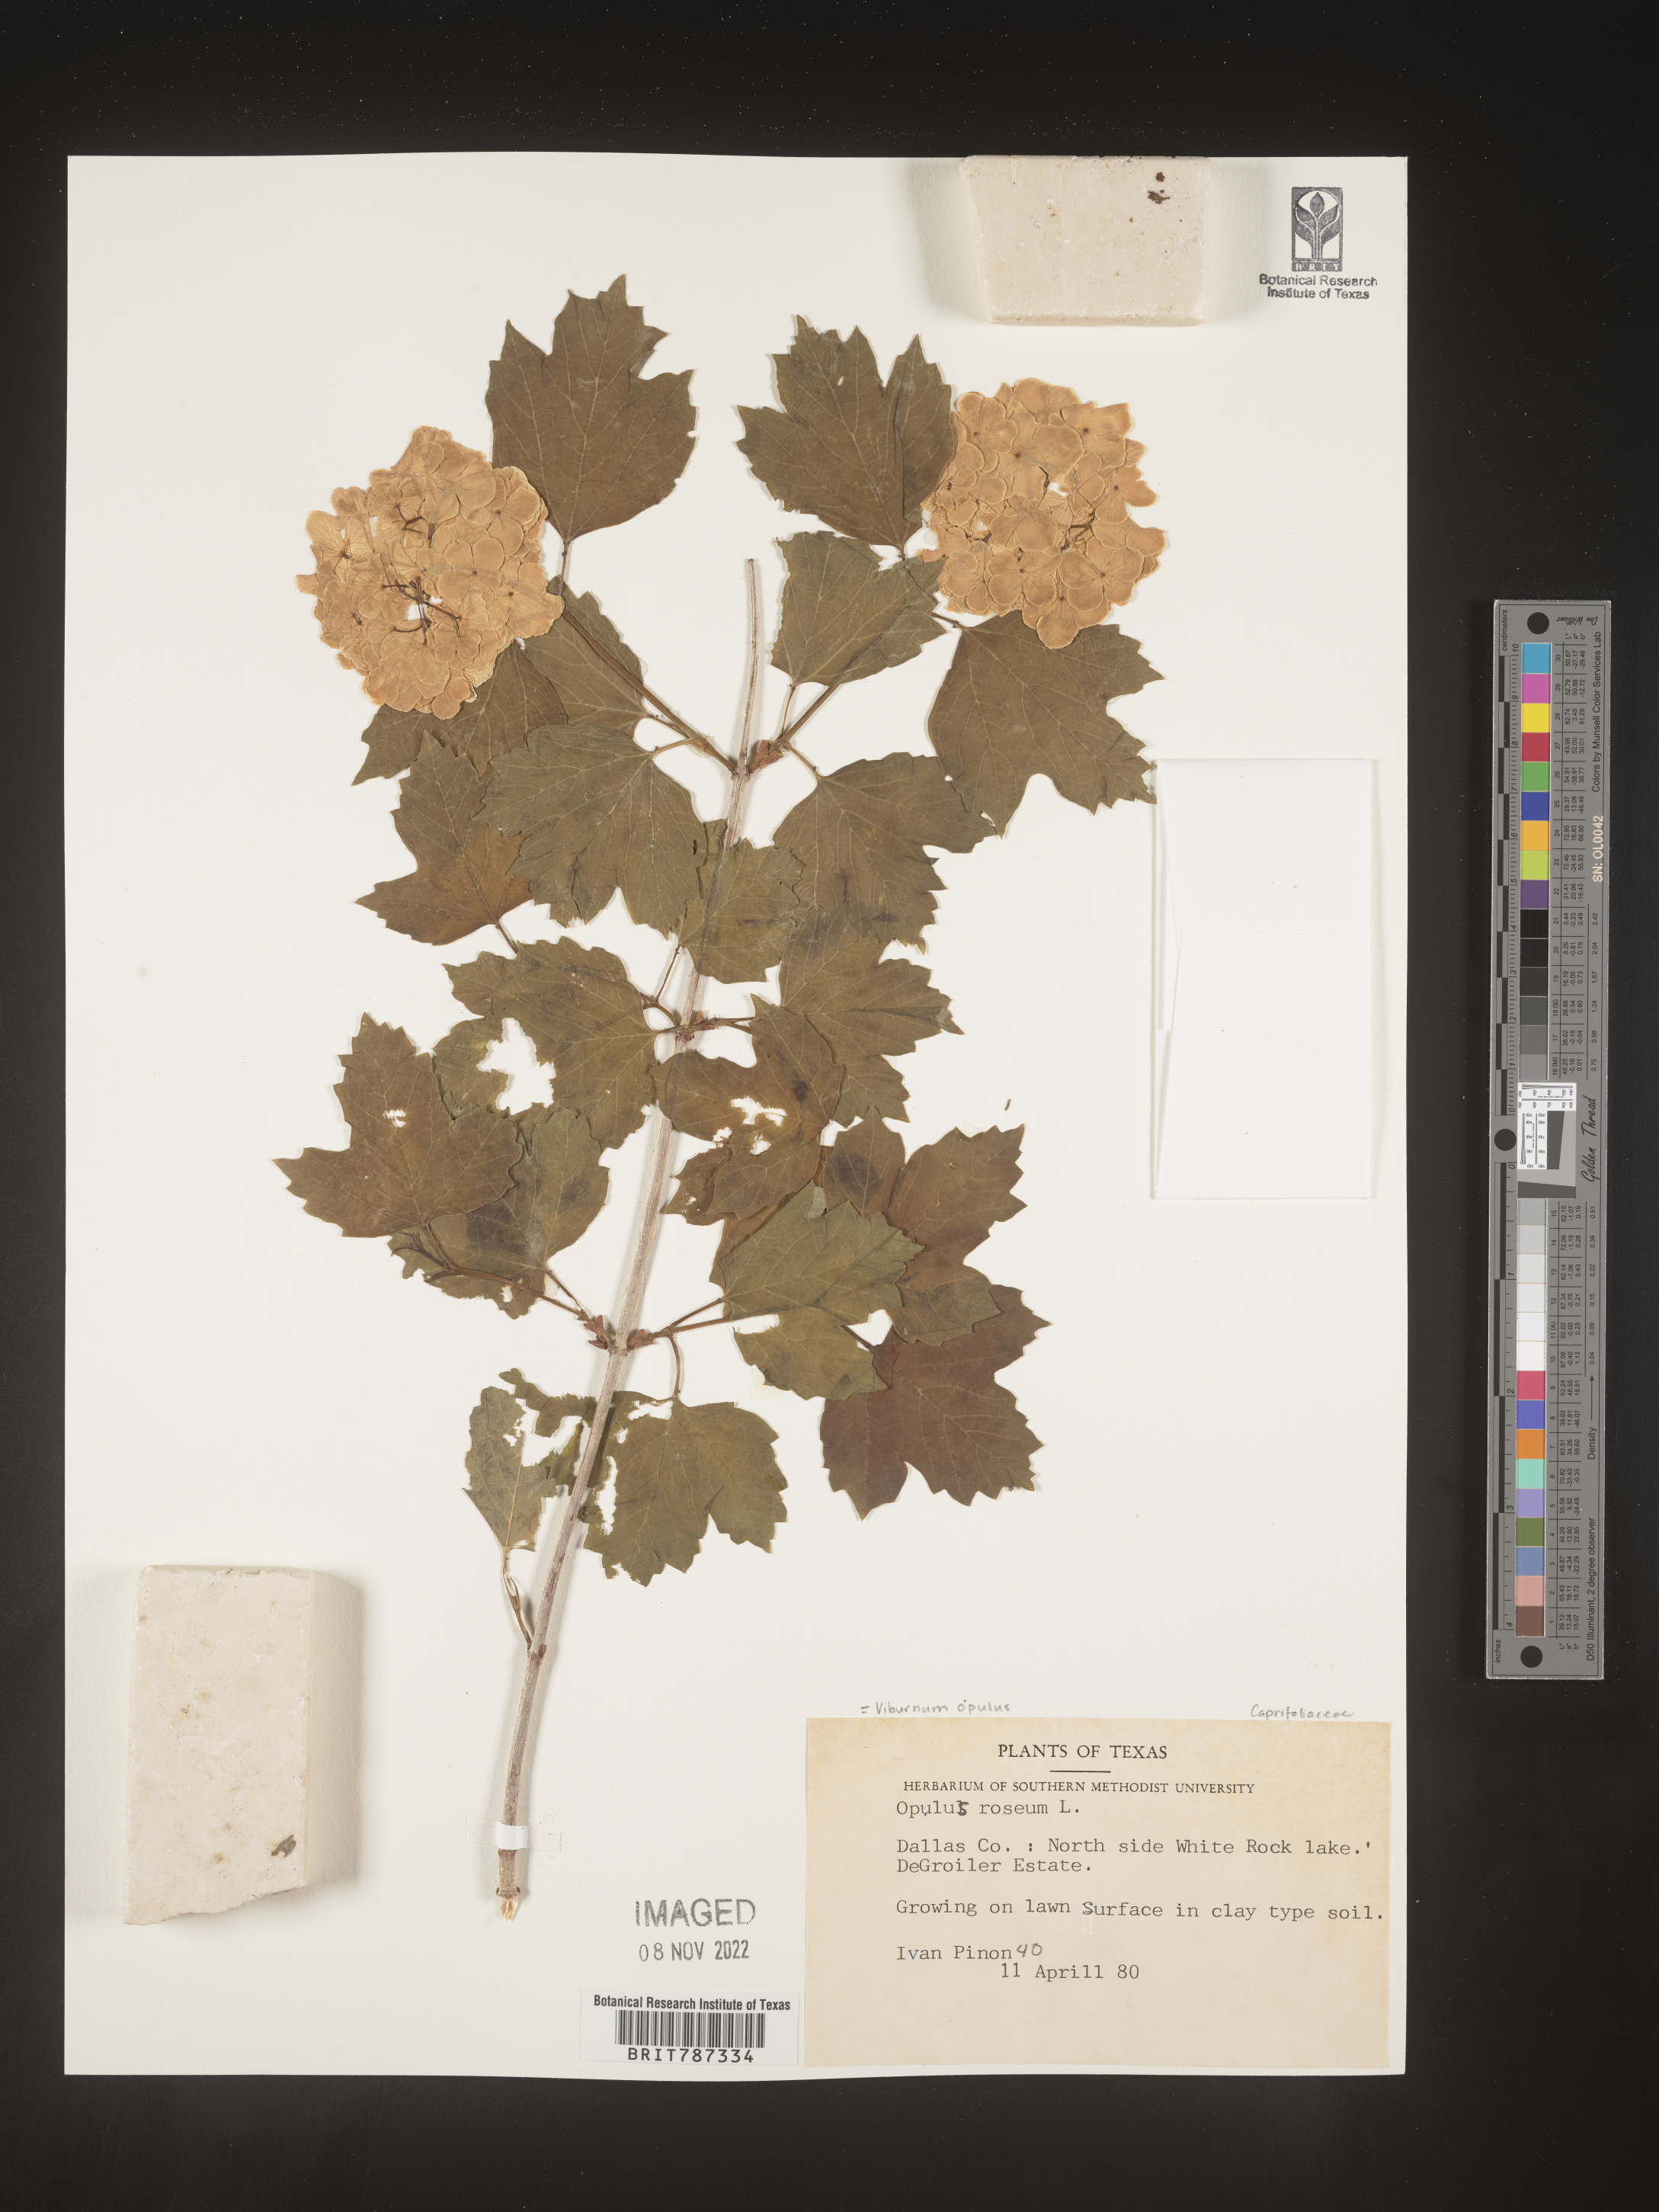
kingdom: Plantae
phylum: Tracheophyta
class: Magnoliopsida
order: Dipsacales
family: Viburnaceae
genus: Viburnum
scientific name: Viburnum
